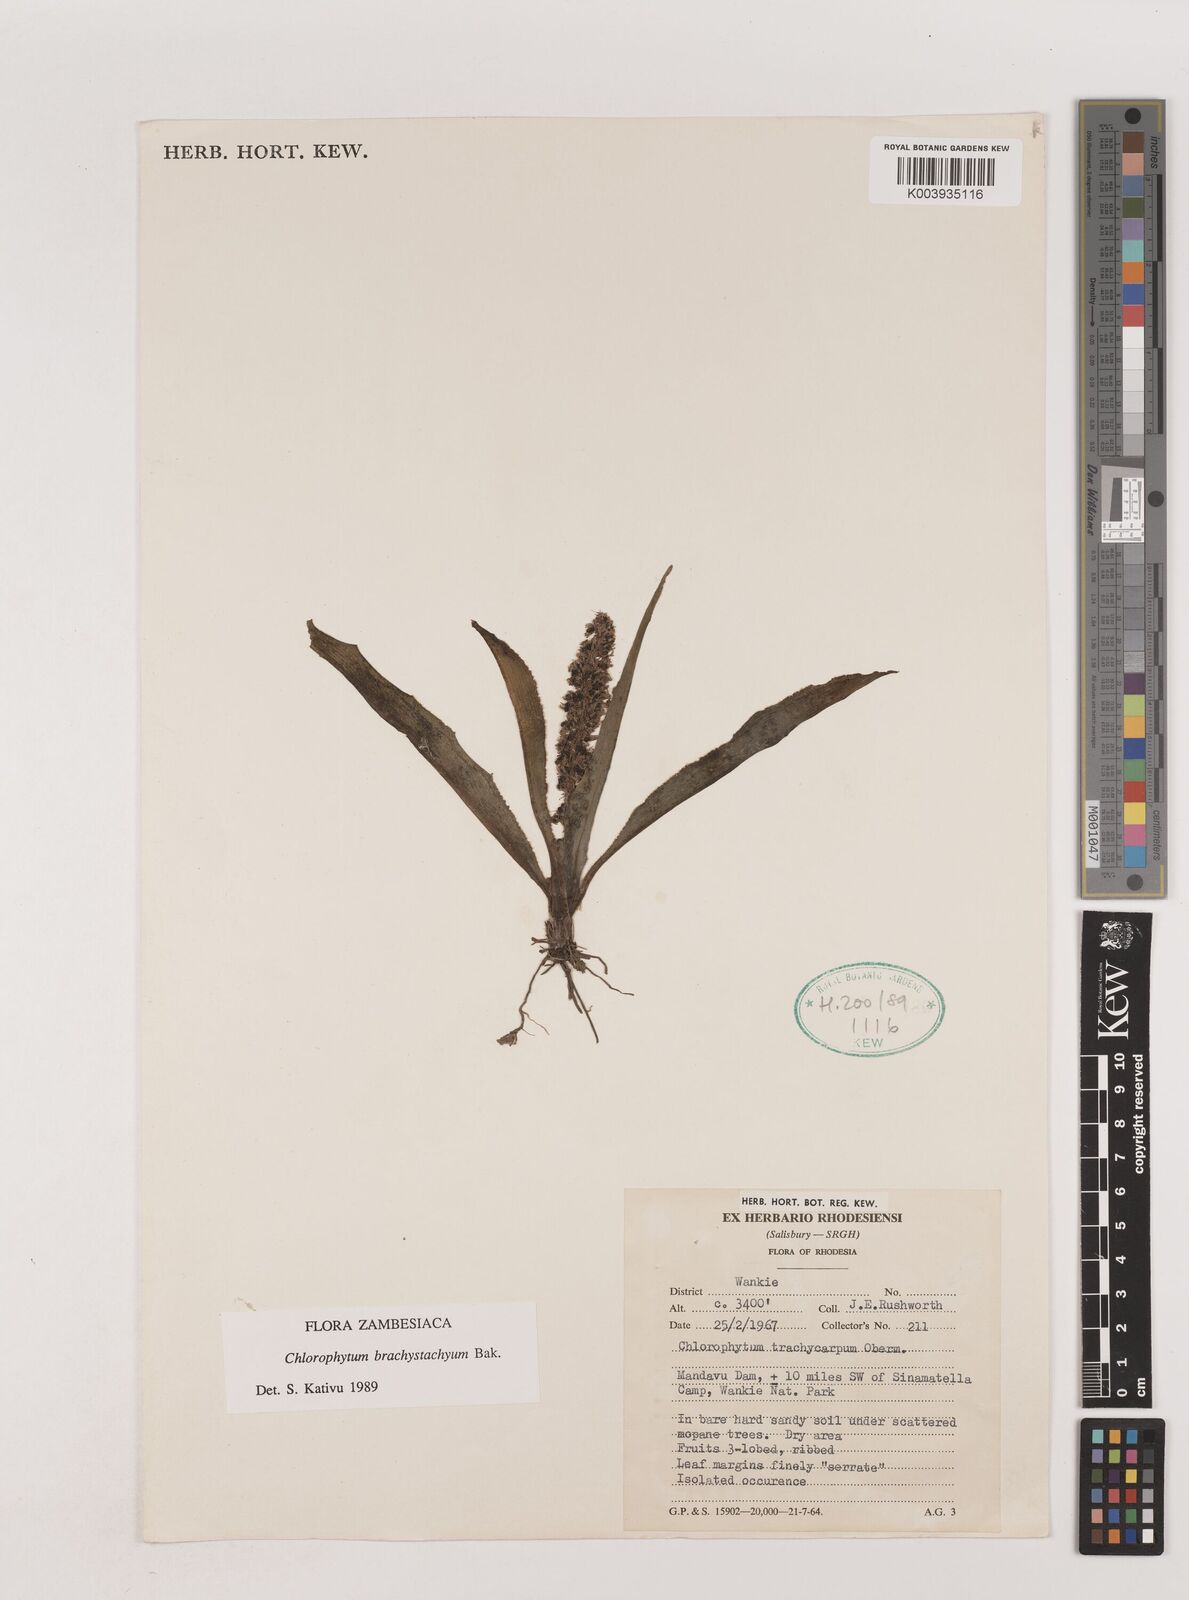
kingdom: Plantae
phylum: Tracheophyta
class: Liliopsida
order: Asparagales
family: Asparagaceae
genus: Chlorophytum
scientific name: Chlorophytum brachystachyum
